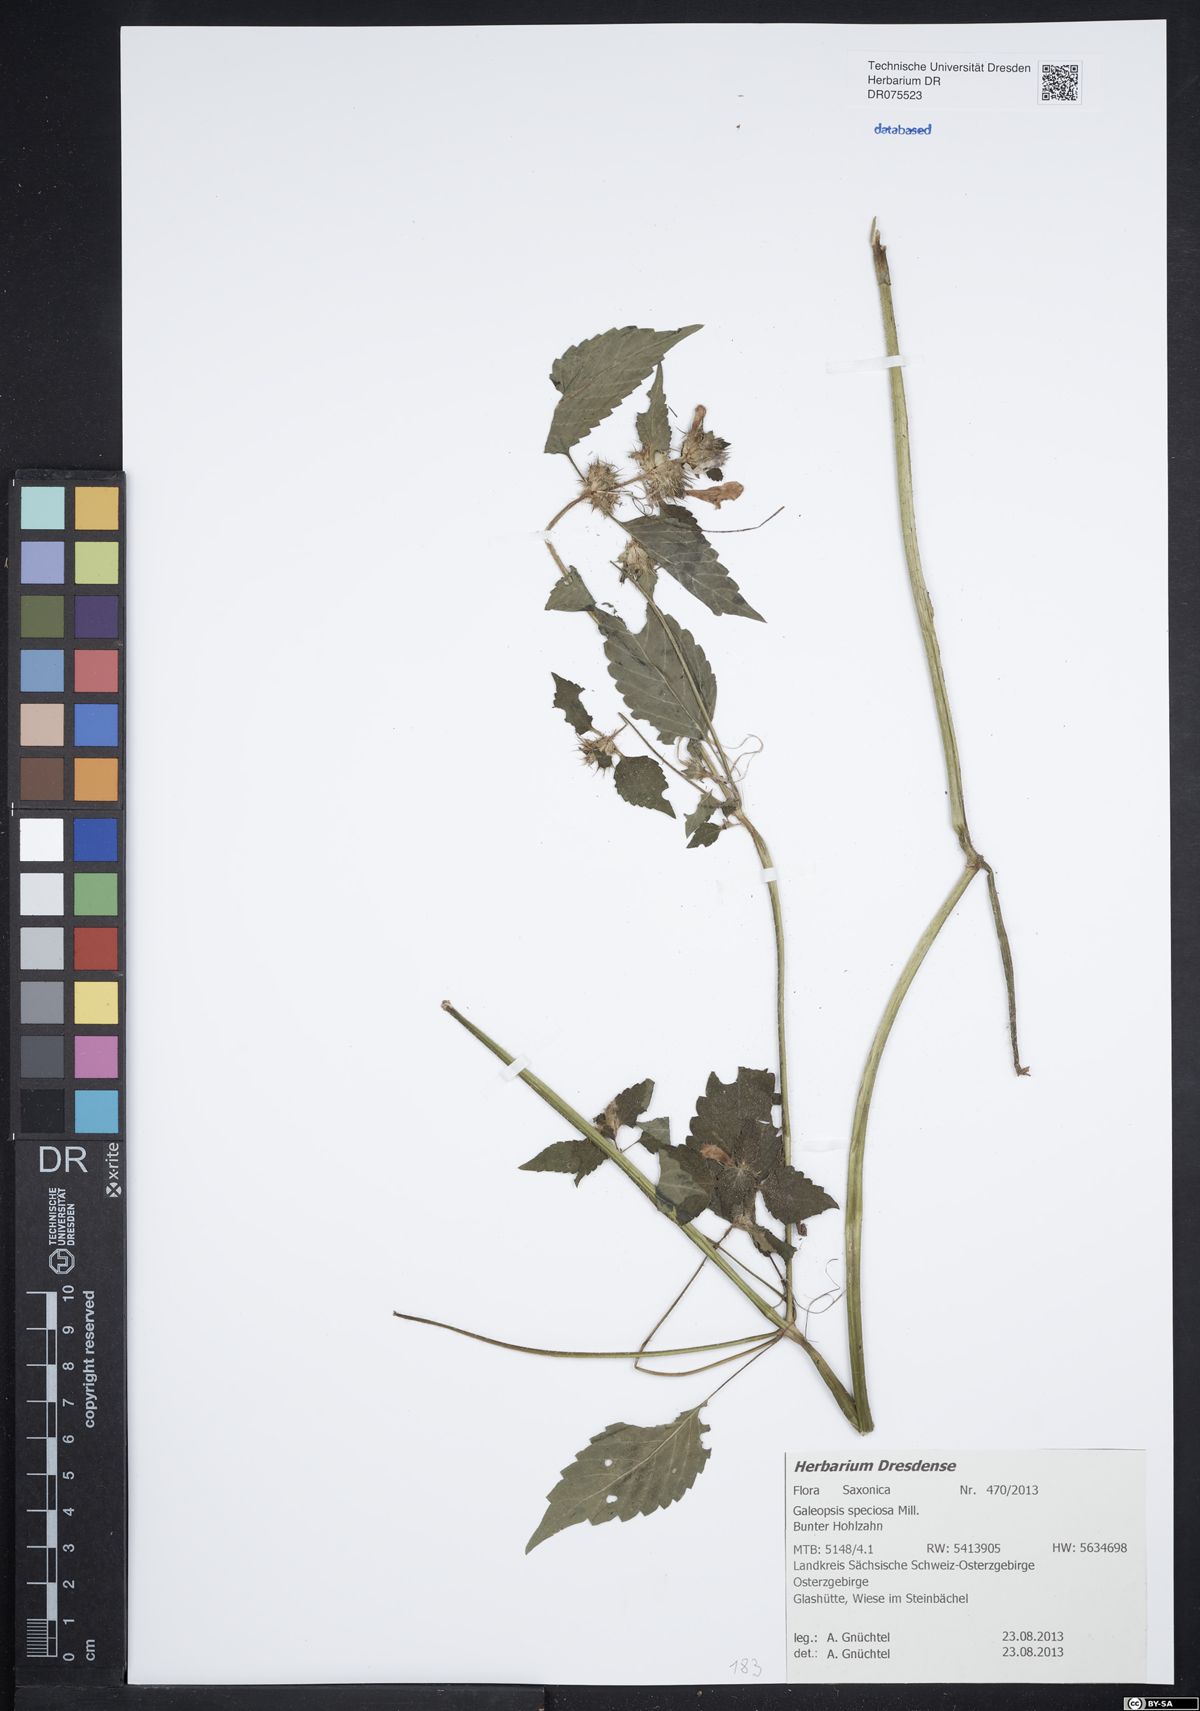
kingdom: Plantae
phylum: Tracheophyta
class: Magnoliopsida
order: Lamiales
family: Lamiaceae
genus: Galeopsis
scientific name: Galeopsis speciosa
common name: Large-flowered hemp-nettle
